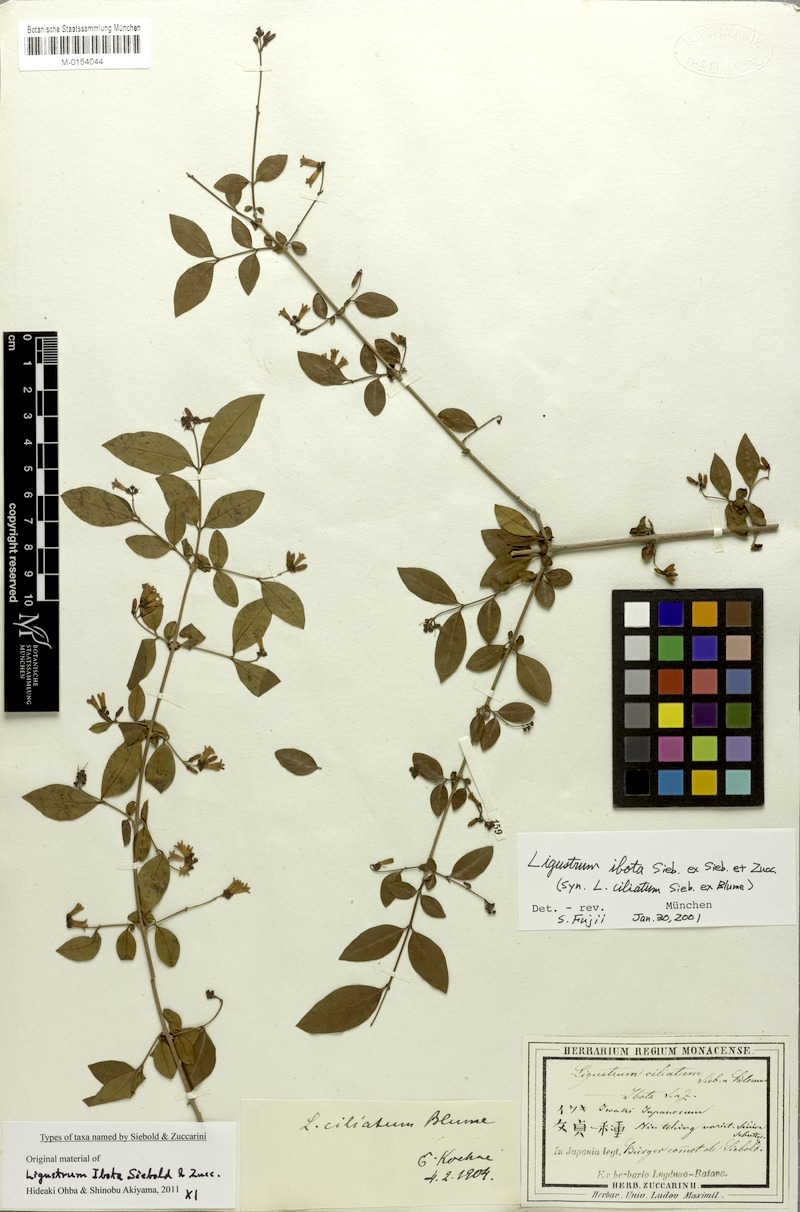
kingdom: Plantae
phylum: Tracheophyta
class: Magnoliopsida
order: Lamiales
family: Oleaceae
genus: Ligustrum
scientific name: Ligustrum ibota
